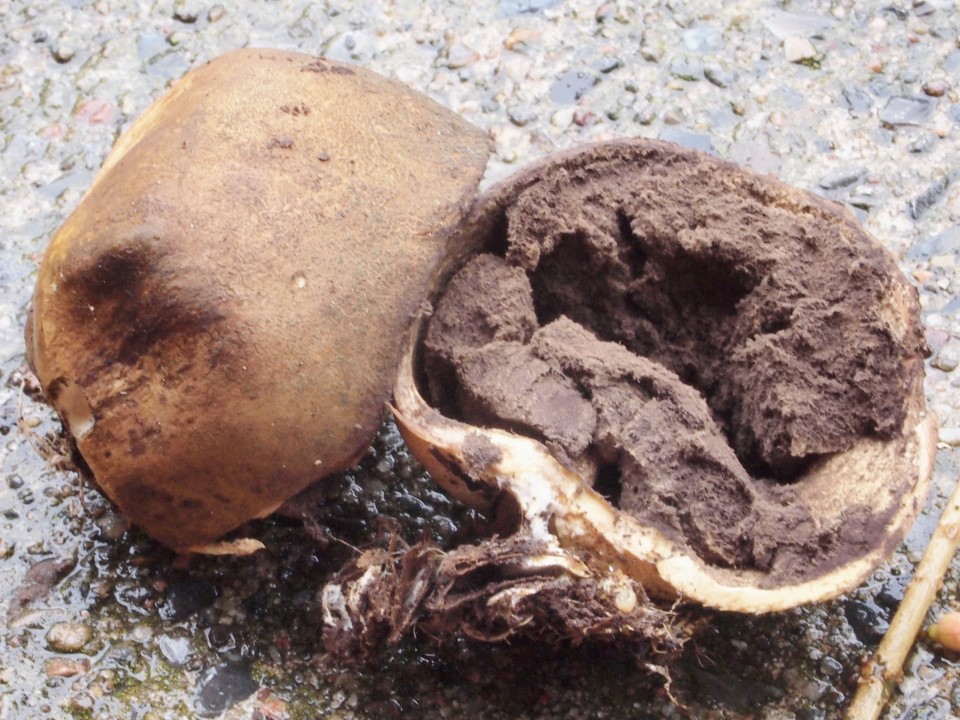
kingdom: Fungi
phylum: Basidiomycota
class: Agaricomycetes
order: Boletales
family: Sclerodermataceae
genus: Scleroderma
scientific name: Scleroderma areolatum
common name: plettet bruskbold
